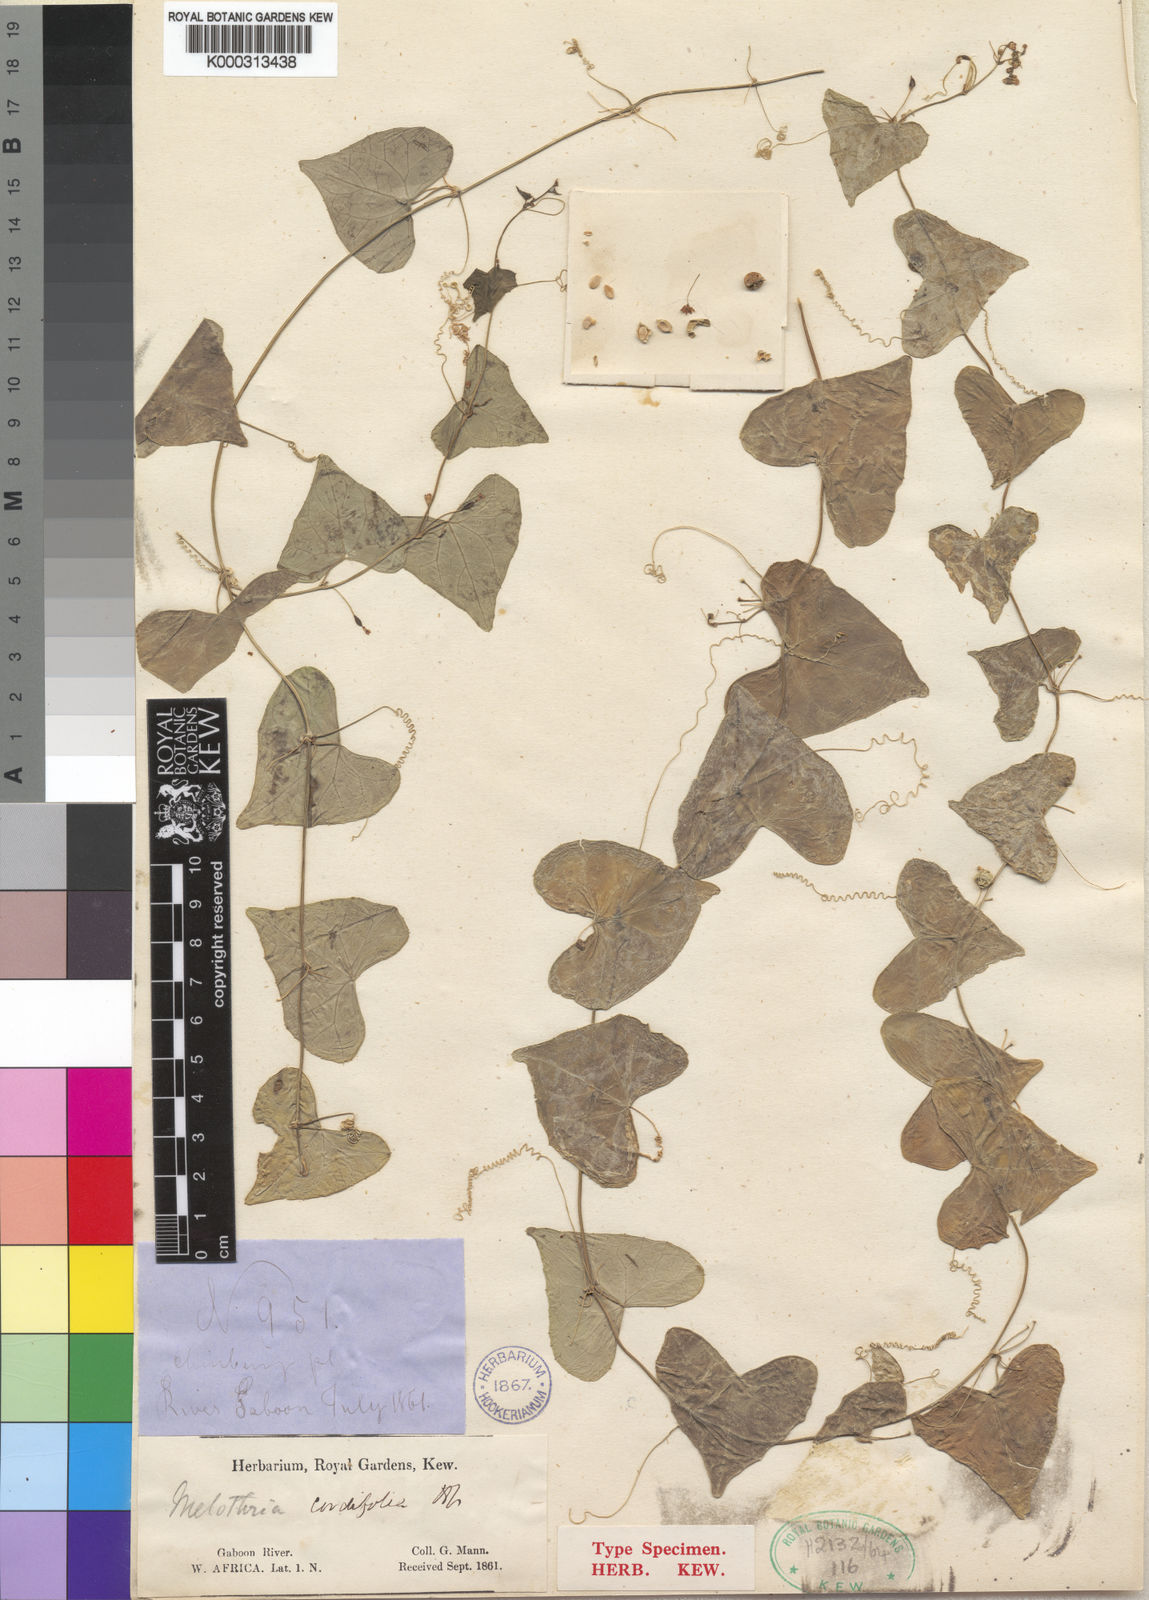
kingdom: Plantae
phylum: Tracheophyta
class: Magnoliopsida
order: Cucurbitales
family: Cucurbitaceae
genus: Zehneria
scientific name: Zehneria gilletii
